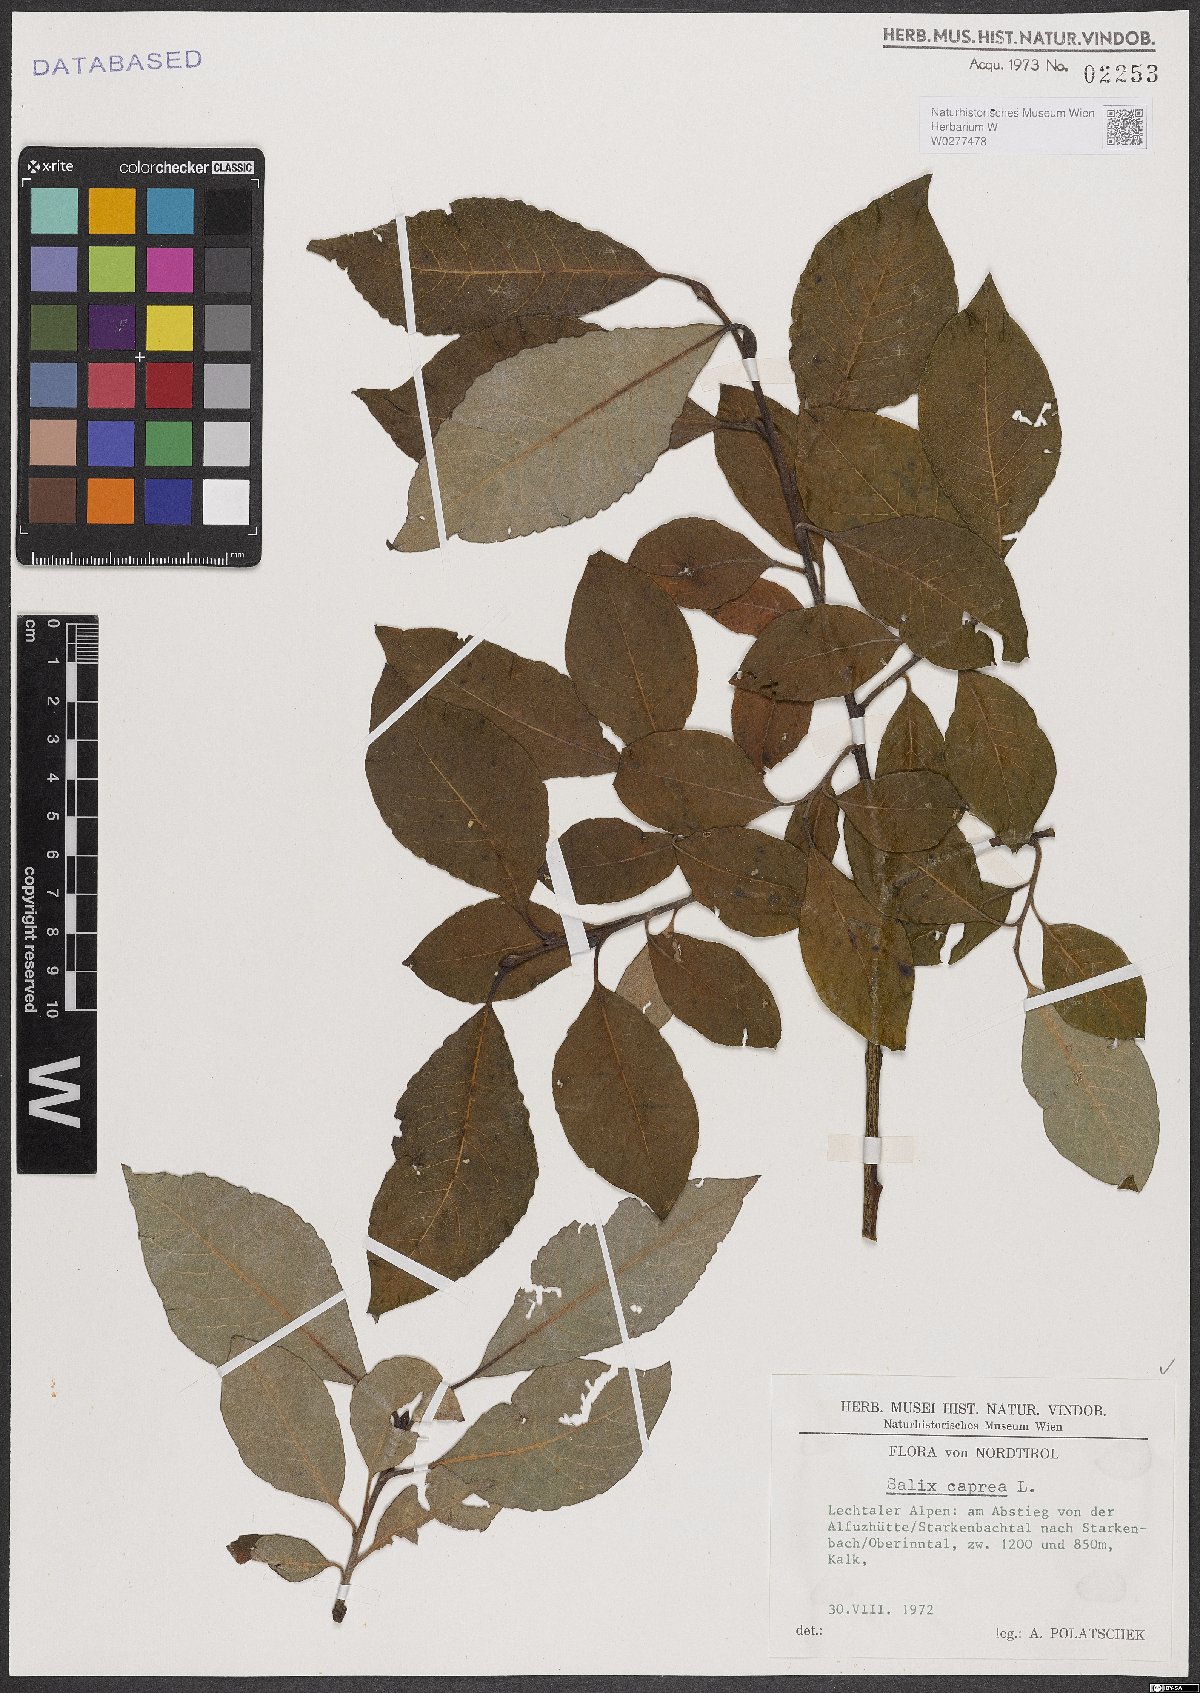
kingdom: Plantae
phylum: Tracheophyta
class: Magnoliopsida
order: Malpighiales
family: Salicaceae
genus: Salix
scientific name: Salix caprea
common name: Goat willow
